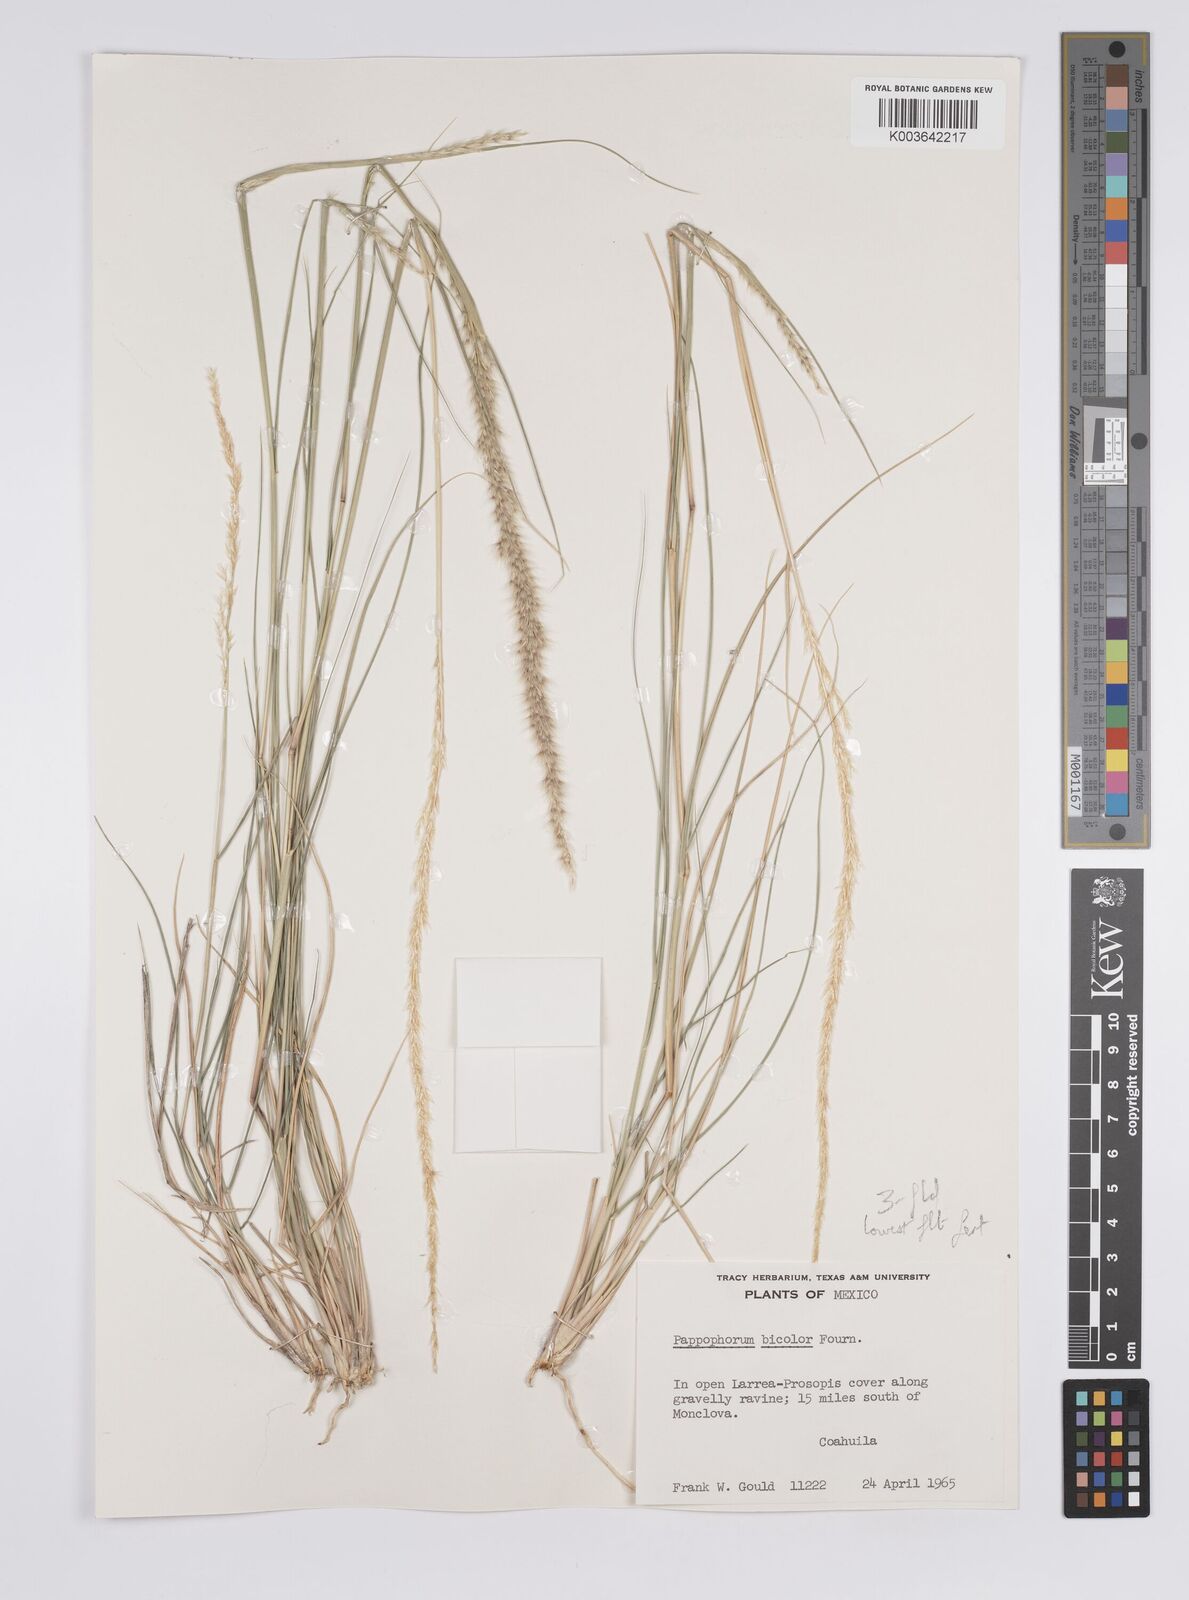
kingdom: Plantae
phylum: Tracheophyta
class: Liliopsida
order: Poales
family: Poaceae
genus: Pappophorum
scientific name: Pappophorum mucronulatum
